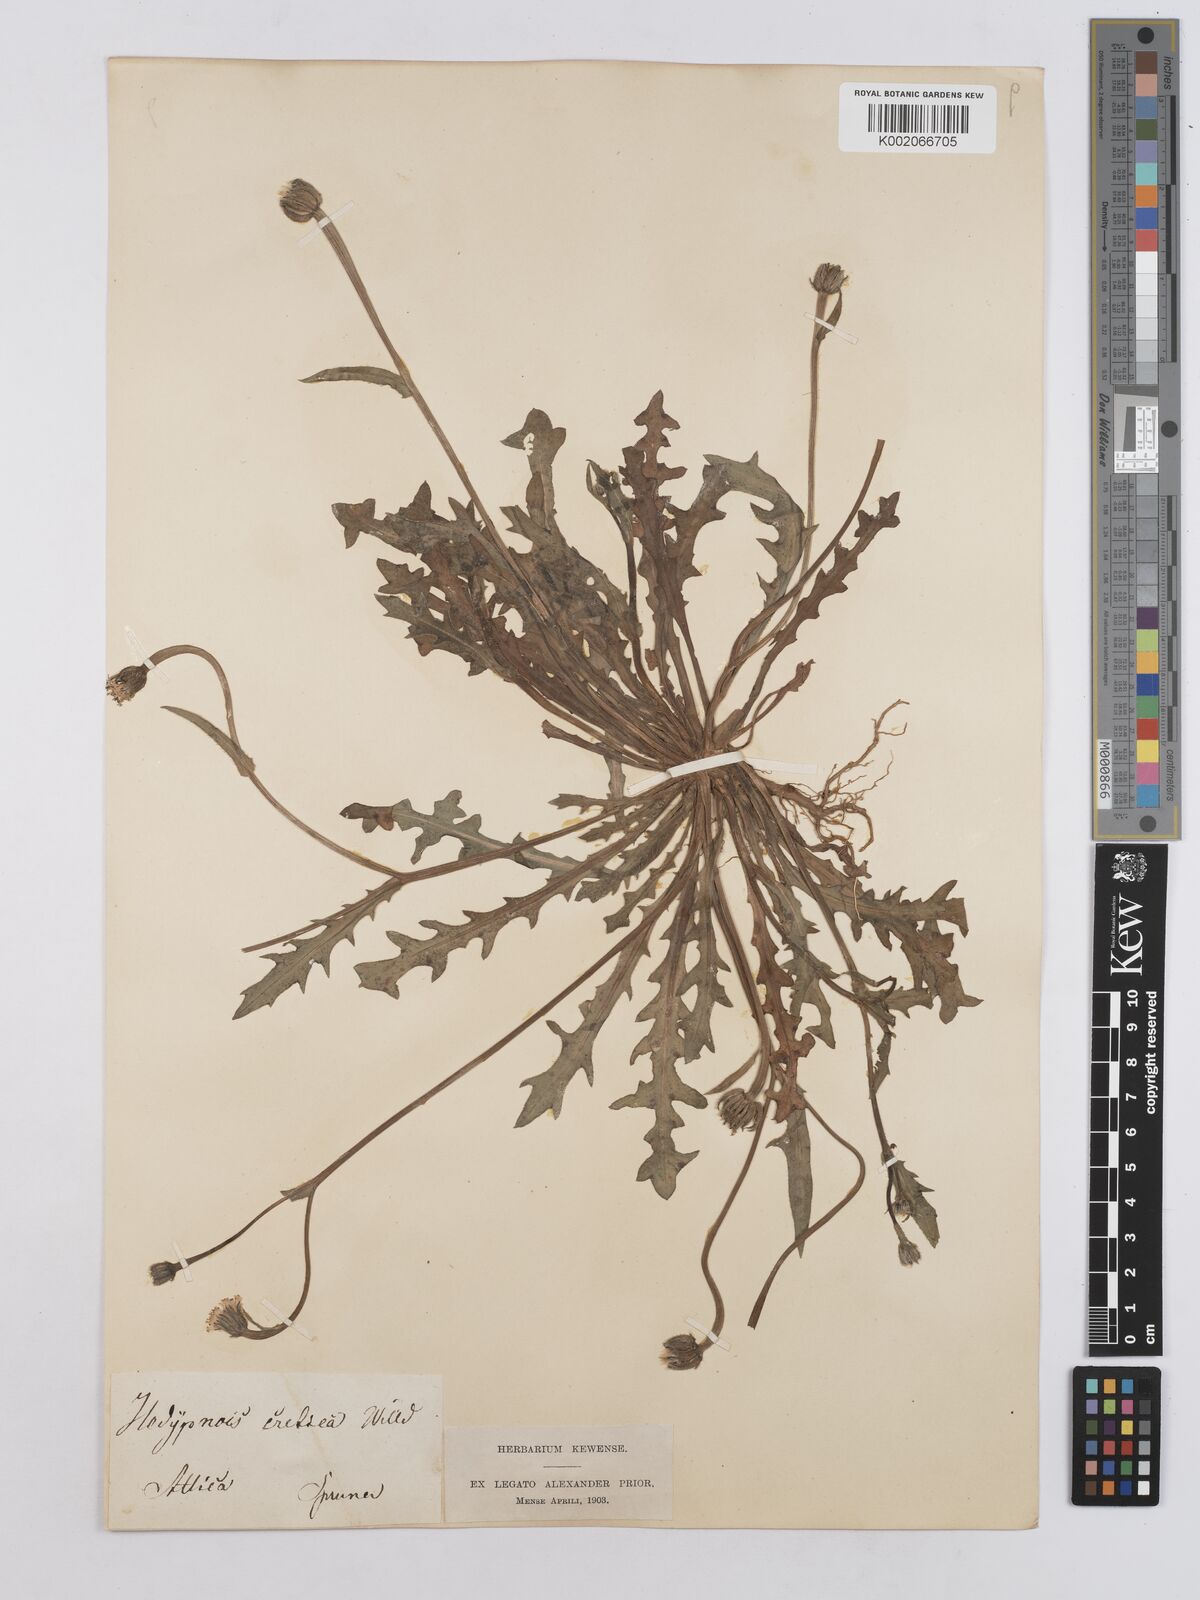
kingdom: Plantae
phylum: Tracheophyta
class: Magnoliopsida
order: Asterales
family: Asteraceae
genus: Hedypnois
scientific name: Hedypnois rhagadioloides
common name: Cretan weed
